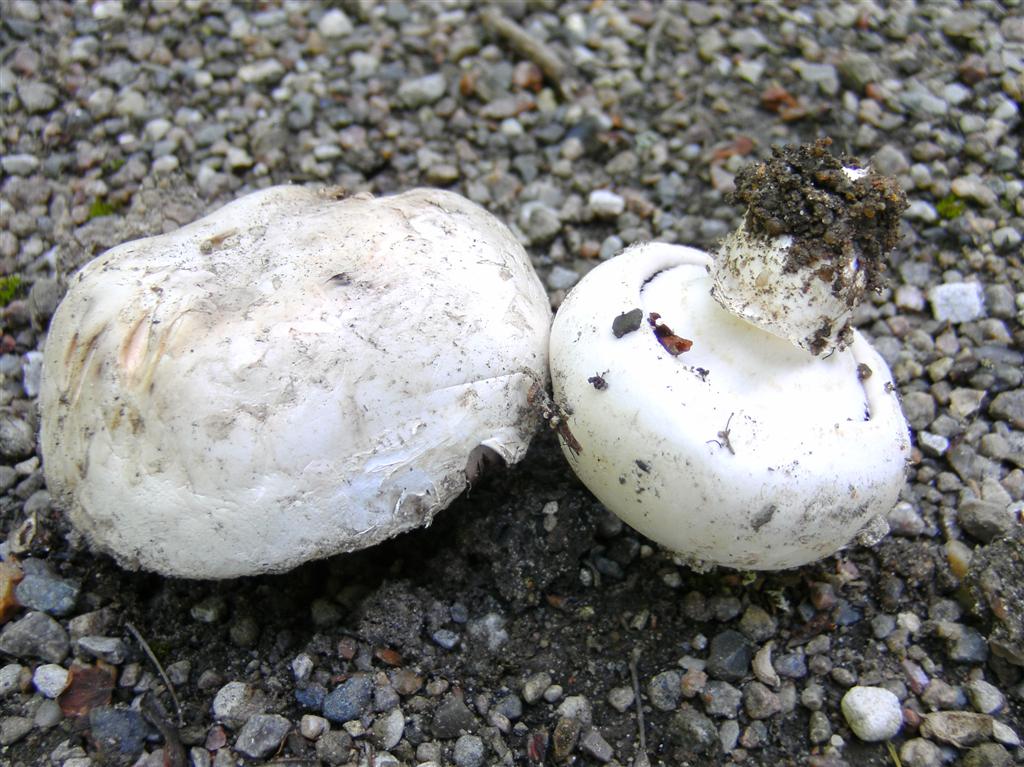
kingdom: Fungi
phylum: Basidiomycota
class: Agaricomycetes
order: Agaricales
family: Agaricaceae
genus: Agaricus
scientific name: Agaricus bitorquis
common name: vej-champignon
